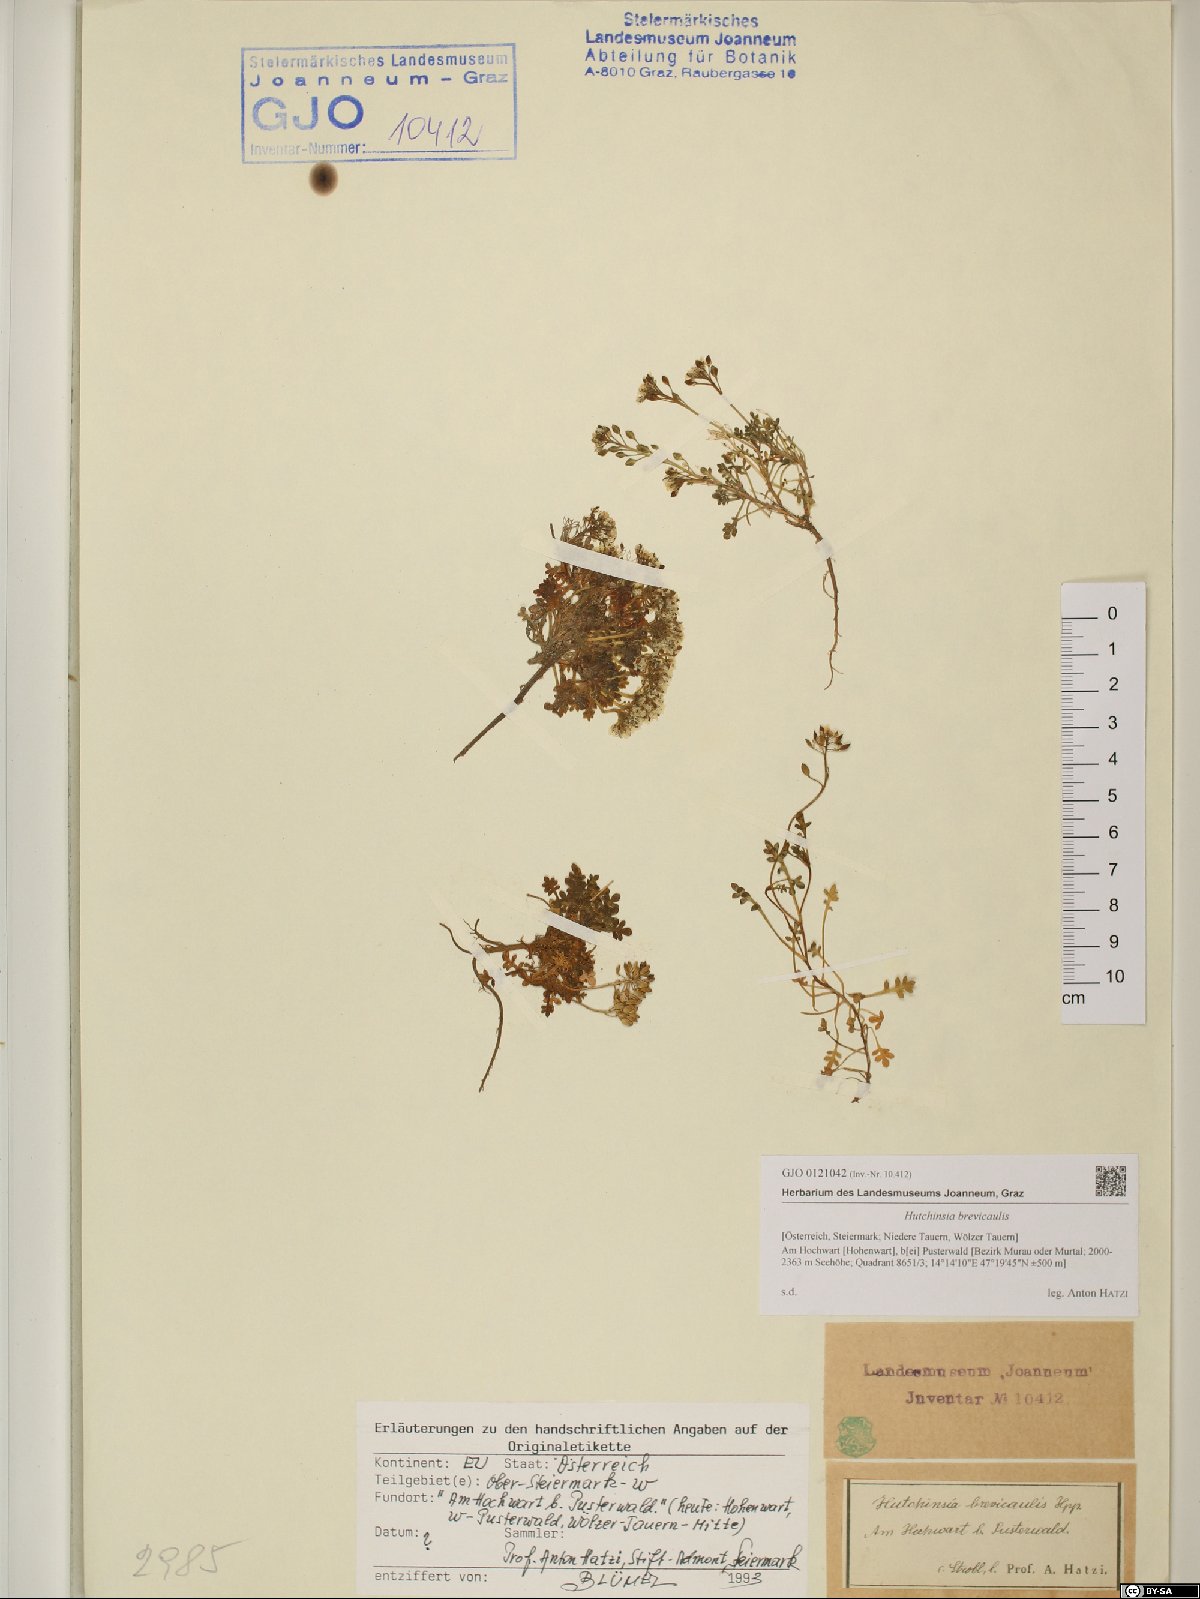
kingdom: Plantae
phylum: Tracheophyta
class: Magnoliopsida
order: Brassicales
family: Brassicaceae
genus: Hornungia
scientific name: Hornungia alpina
